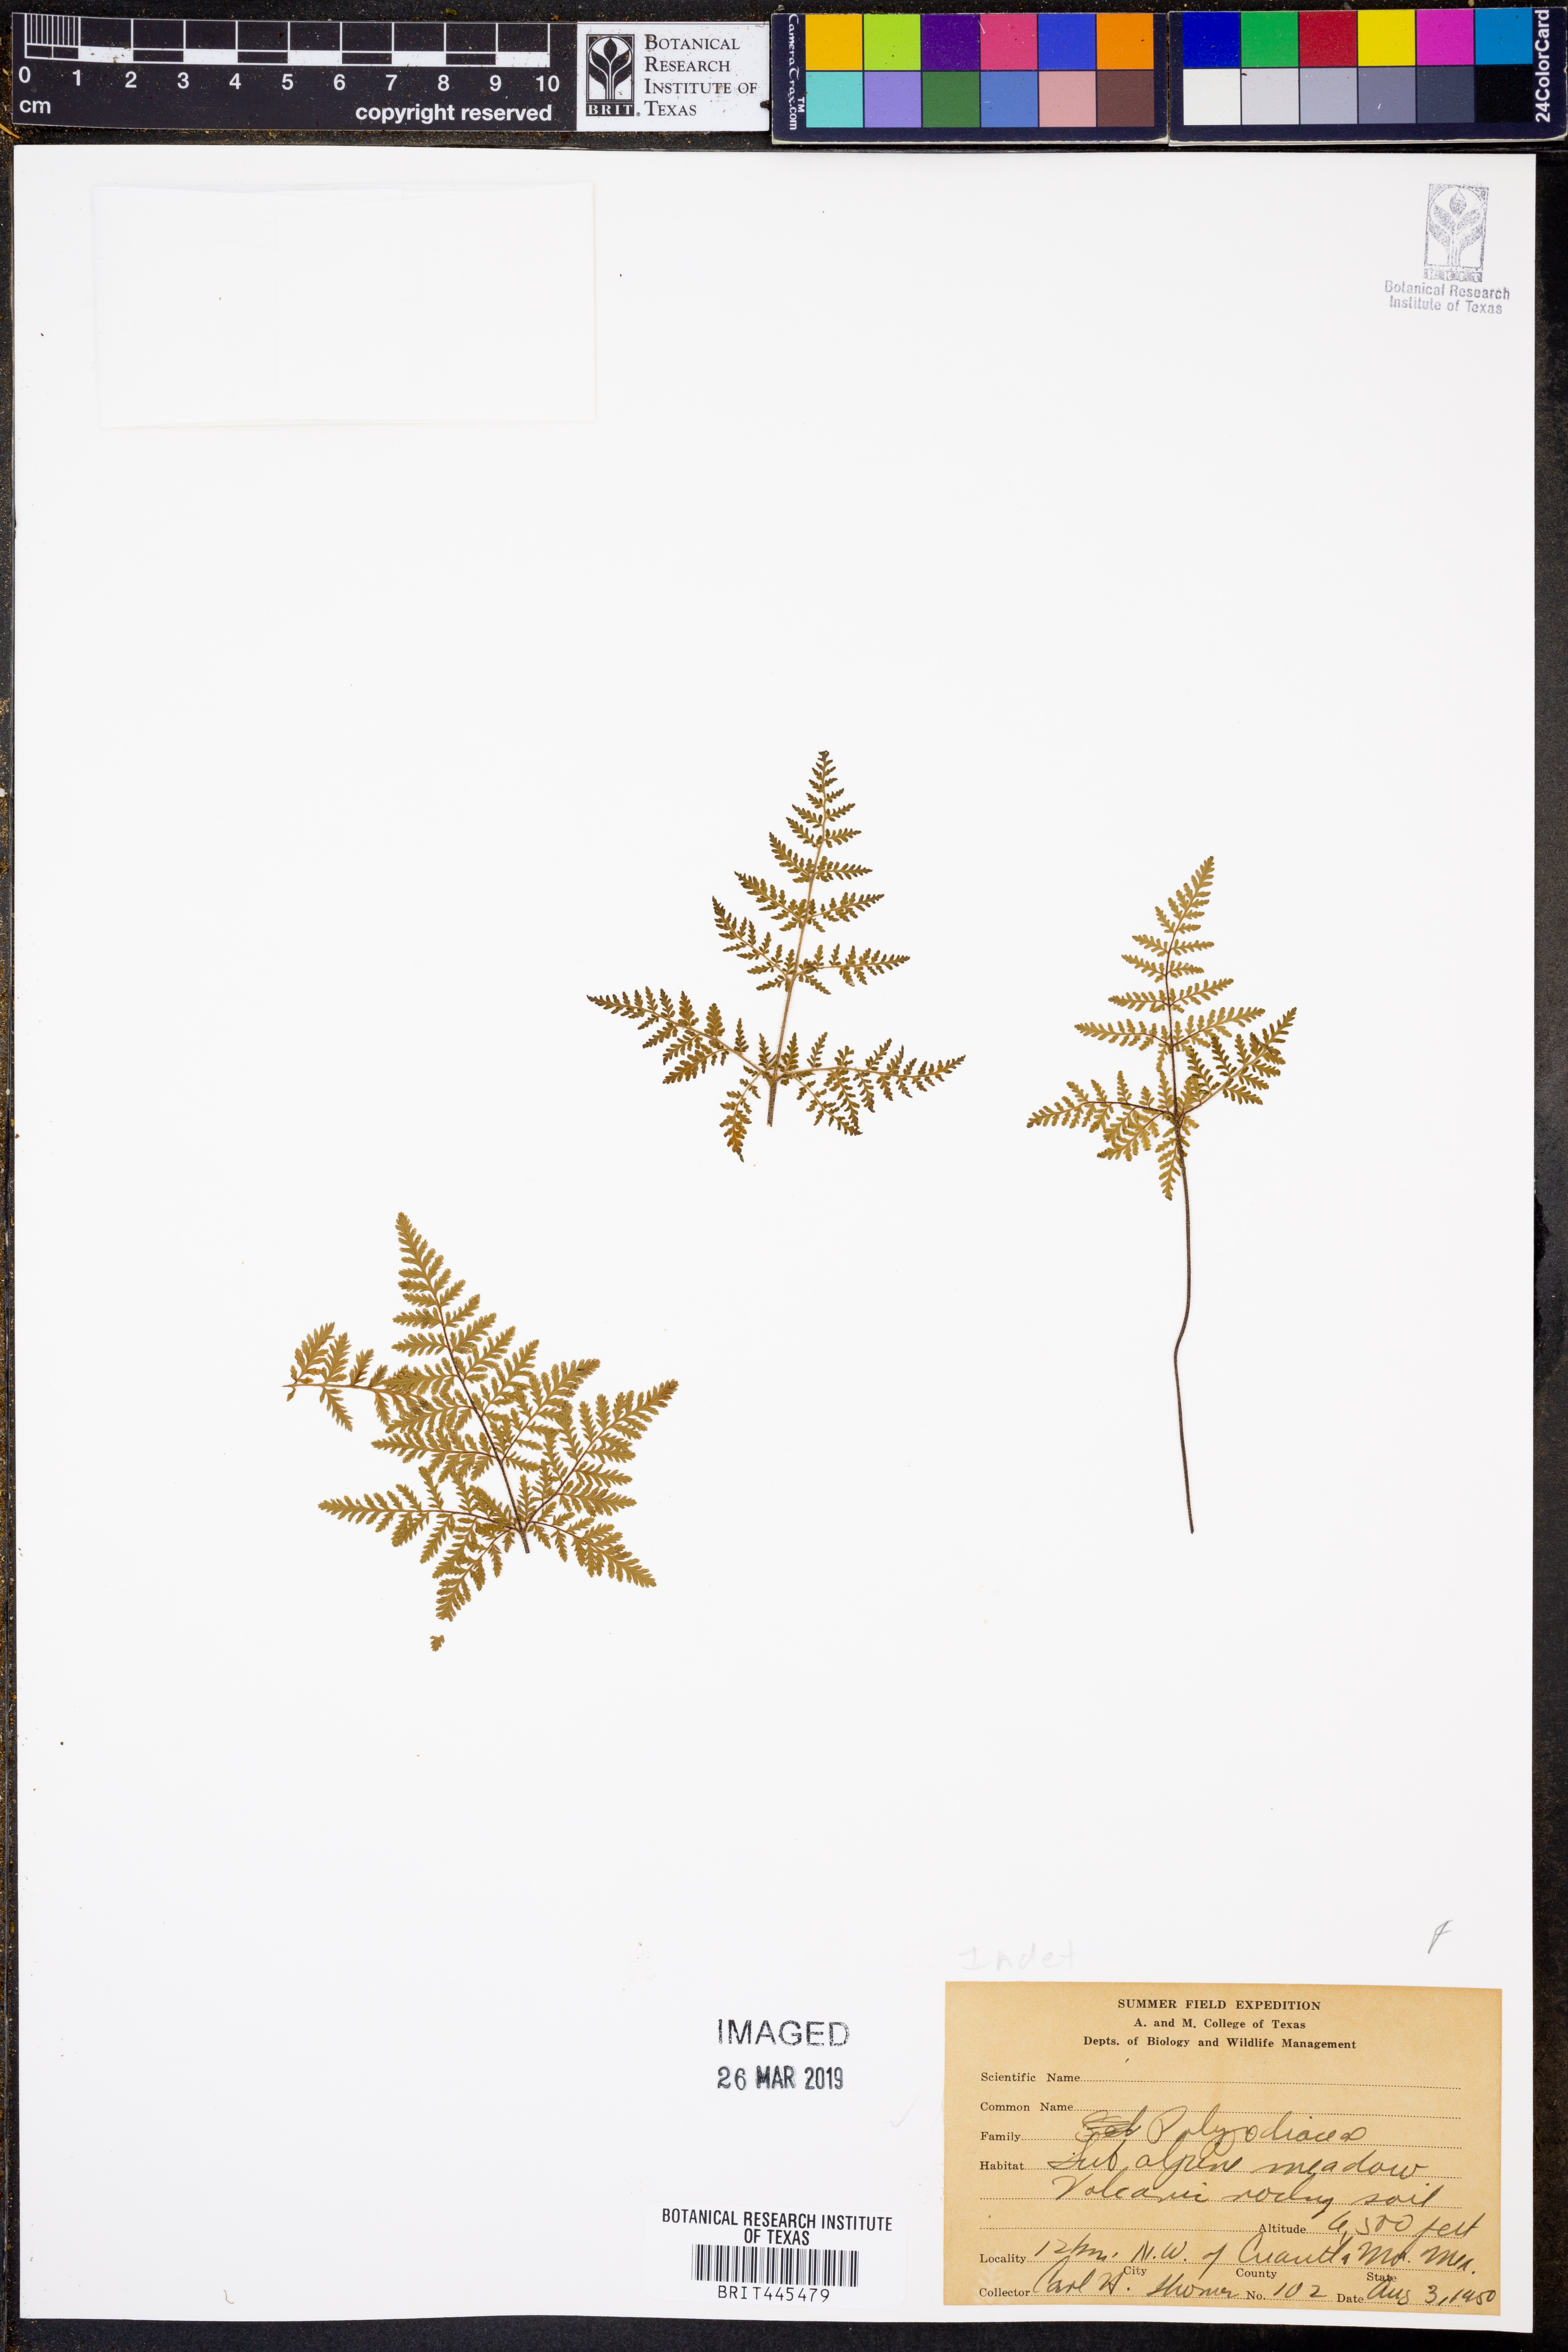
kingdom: Plantae
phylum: Tracheophyta
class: Polypodiopsida
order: Polypodiales
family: Polypodiaceae
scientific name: Polypodiaceae
